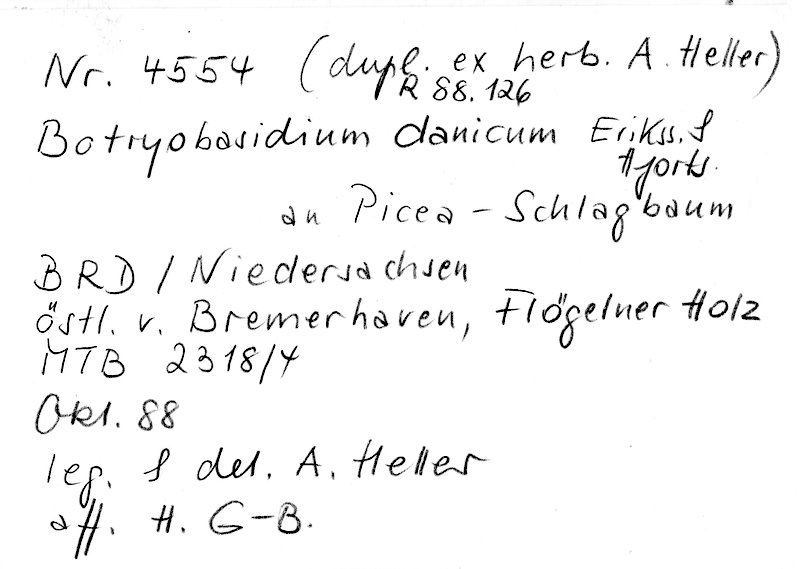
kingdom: Fungi
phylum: Basidiomycota
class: Agaricomycetes
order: Cantharellales
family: Botryobasidiaceae
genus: Botryobasidium
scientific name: Botryobasidium danicum
